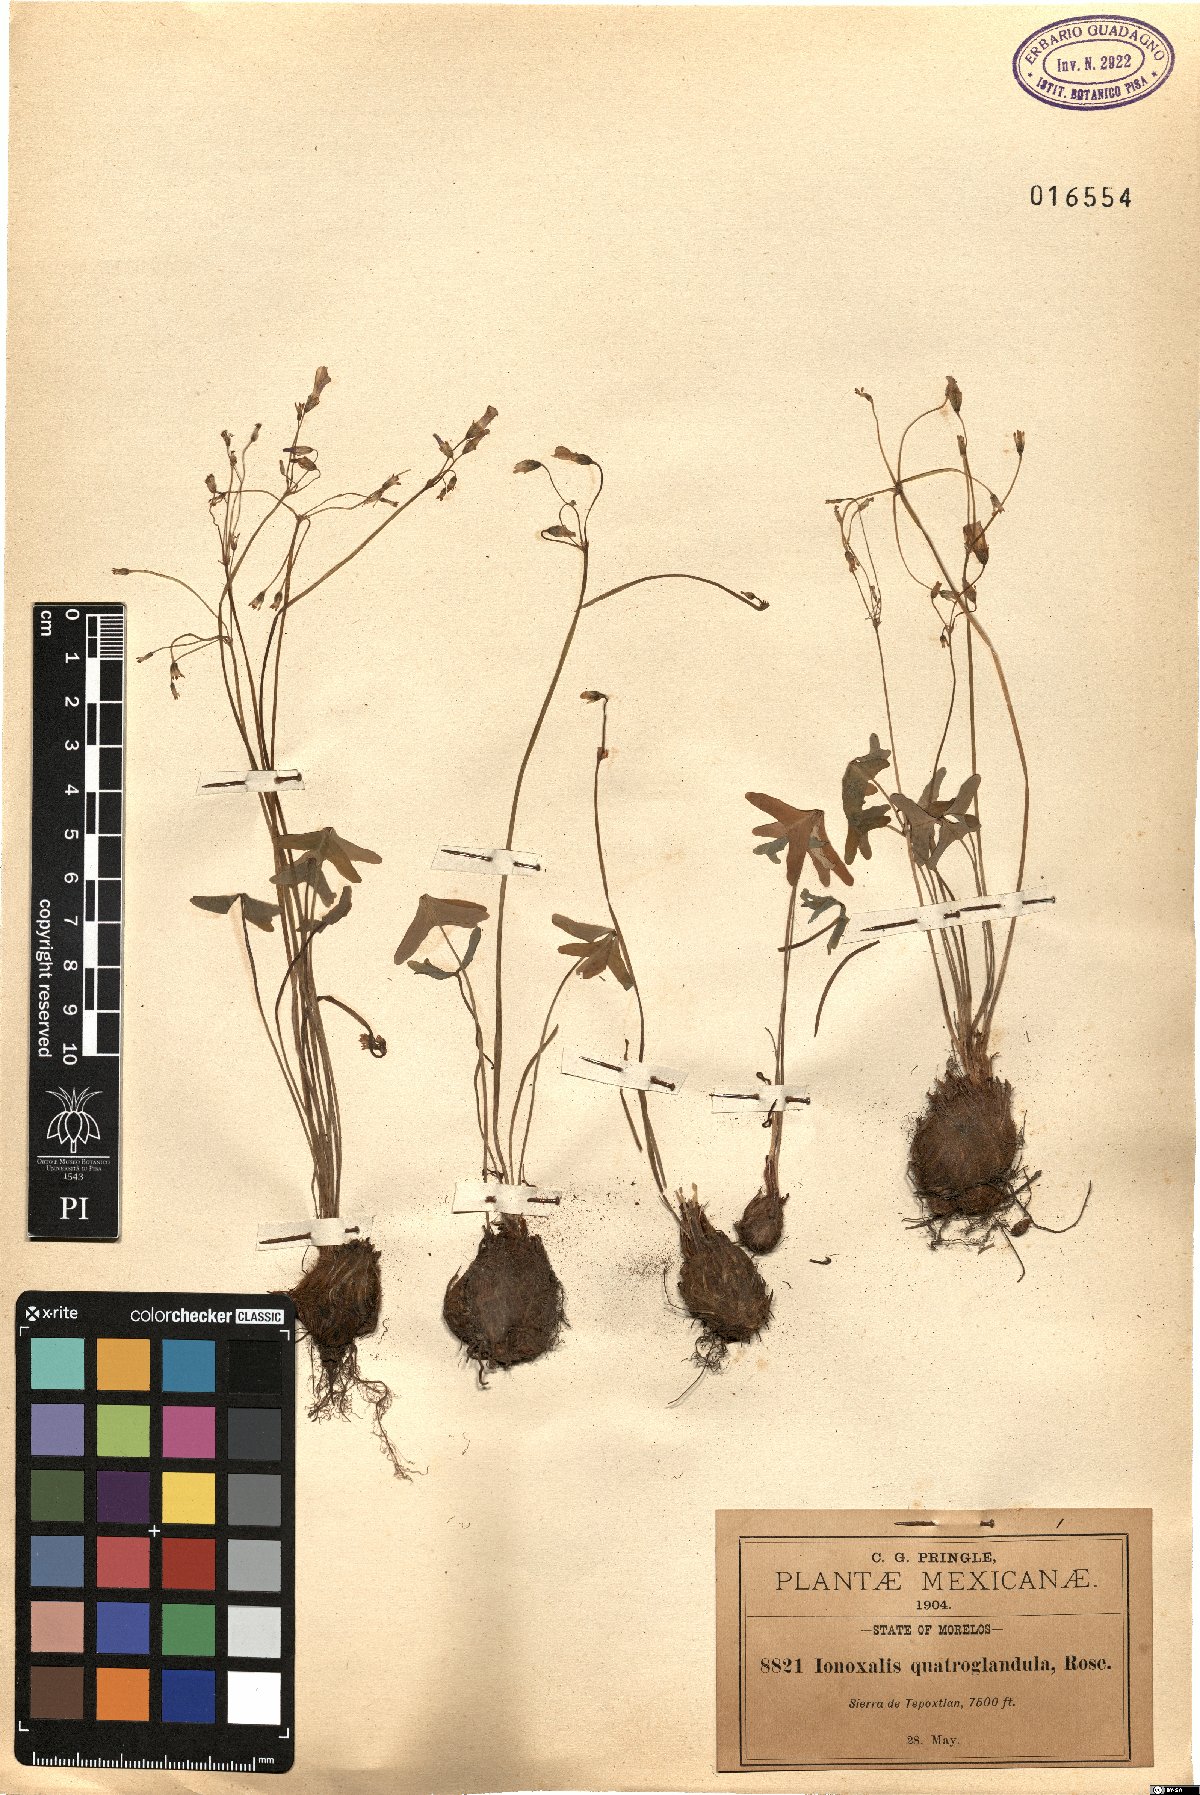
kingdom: Plantae
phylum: Tracheophyta
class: Magnoliopsida
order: Oxalidales
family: Oxalidaceae
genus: Oxalis
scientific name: Oxalis jacquiniana
